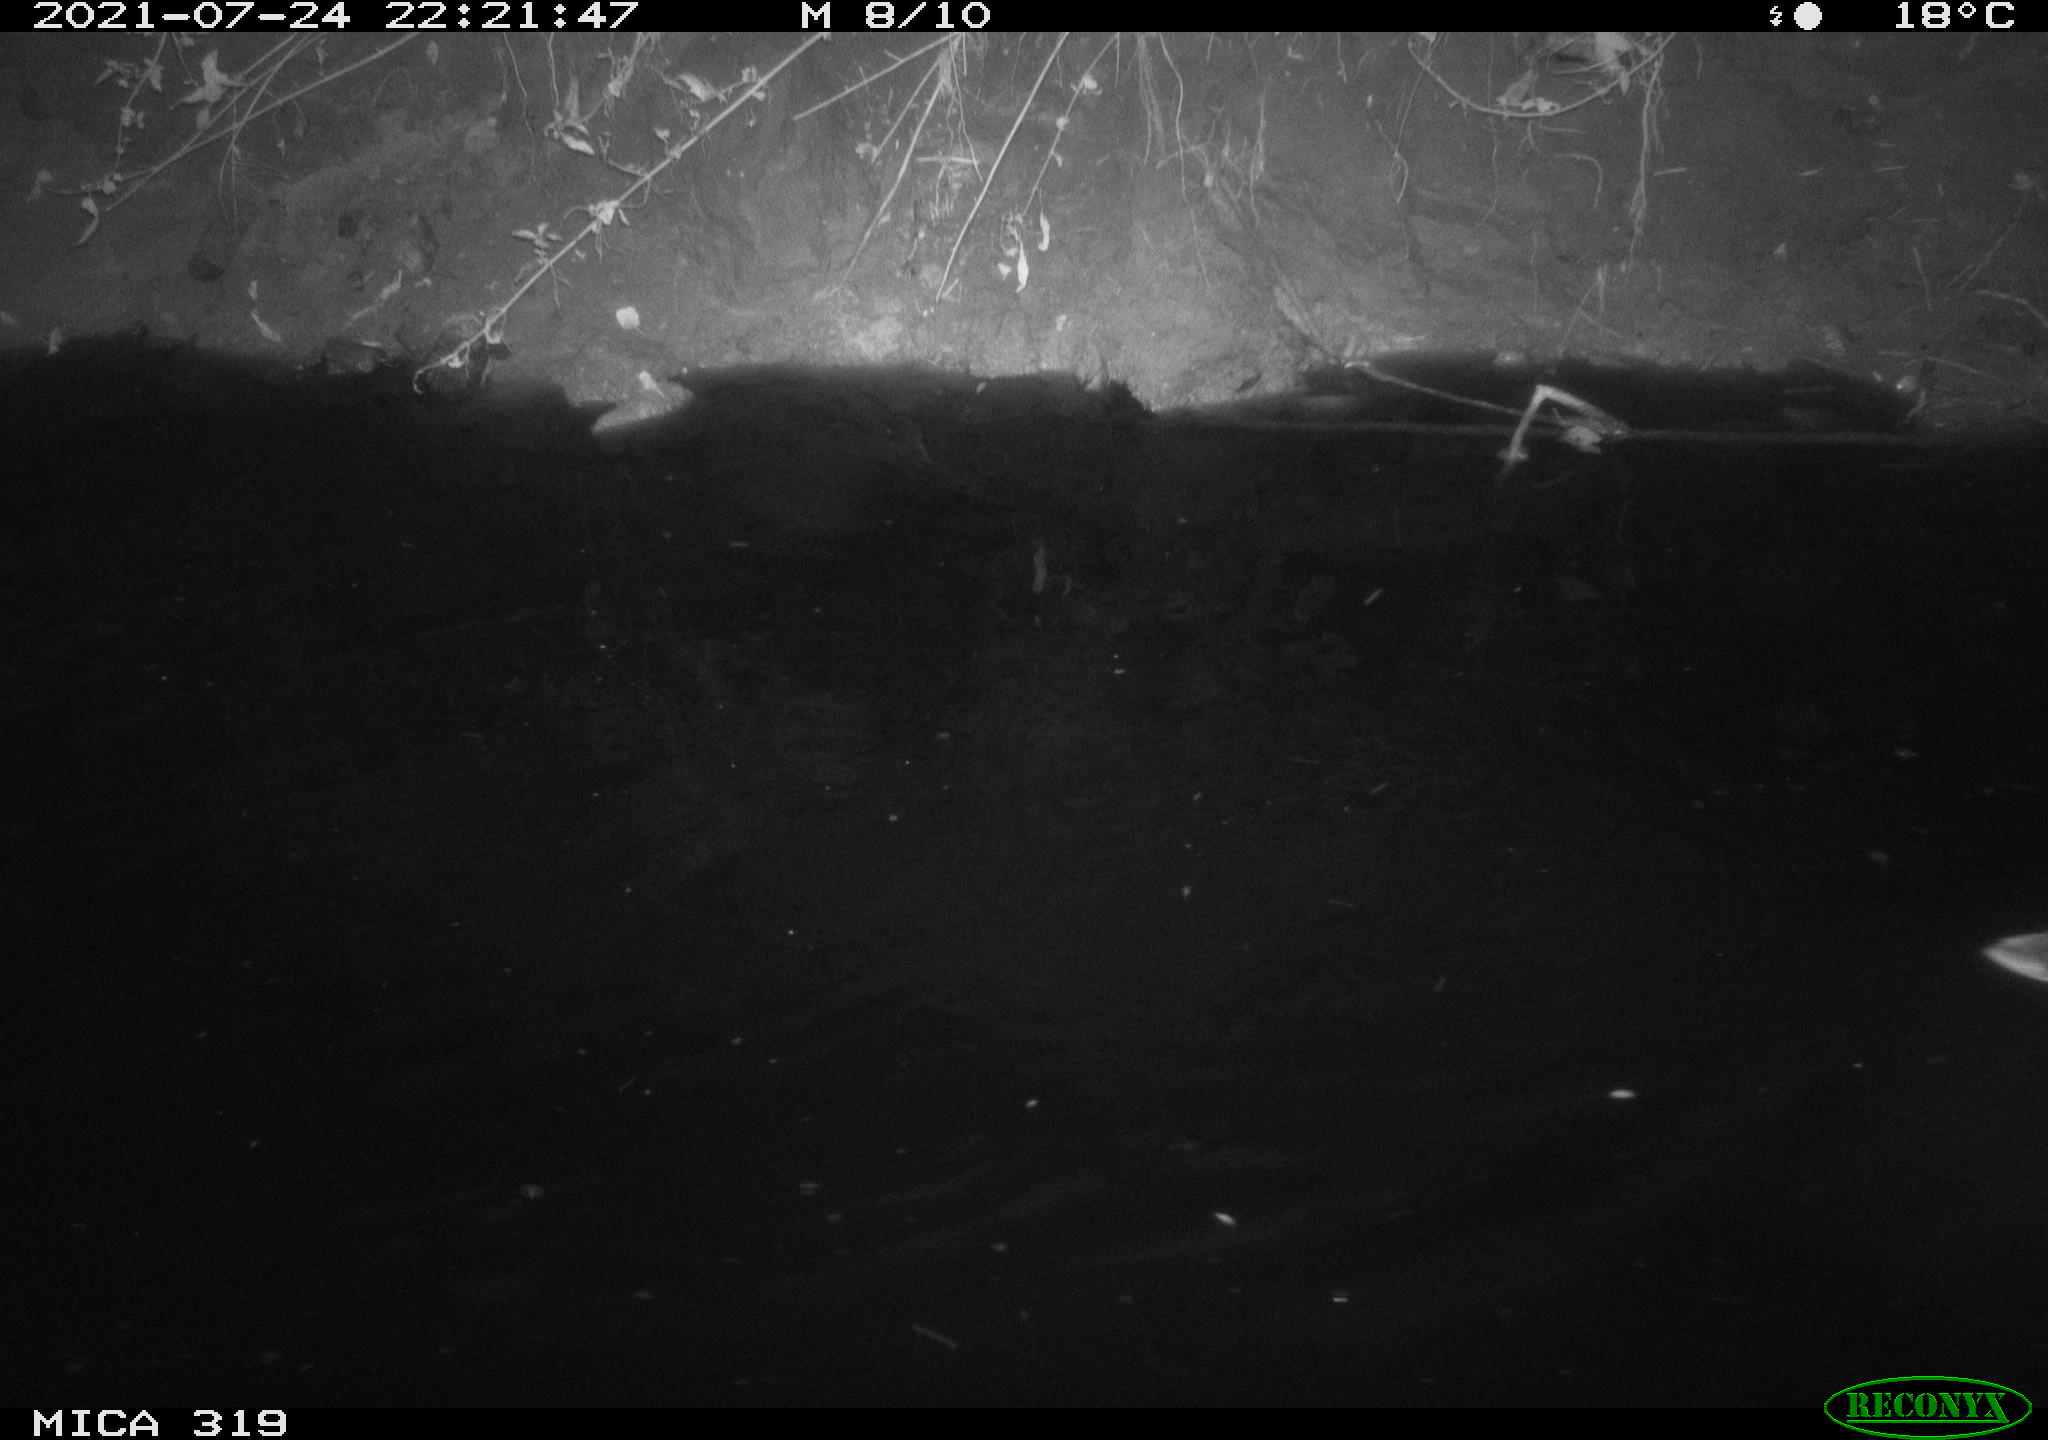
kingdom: Animalia
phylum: Chordata
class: Aves
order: Anseriformes
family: Anatidae
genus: Anas
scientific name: Anas platyrhynchos
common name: Mallard
